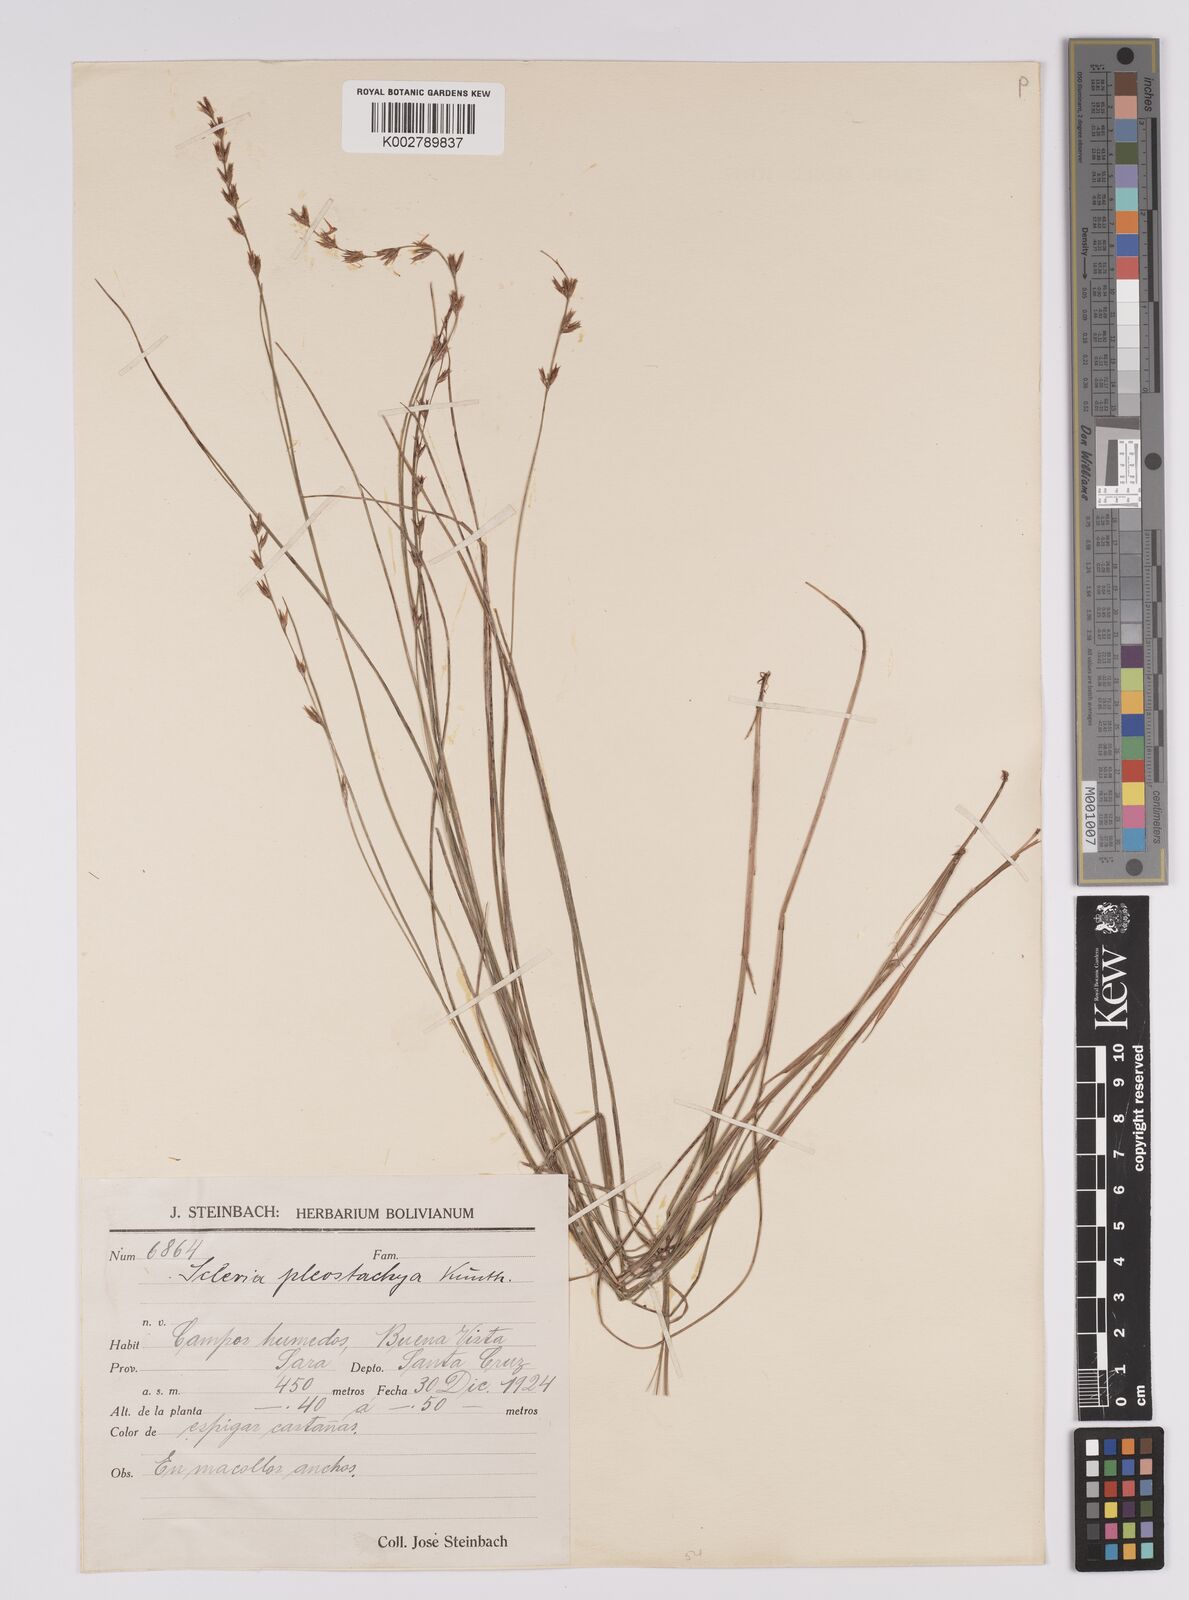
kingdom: Plantae
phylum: Tracheophyta
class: Liliopsida
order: Poales
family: Cyperaceae
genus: Scleria
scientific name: Scleria spicata
